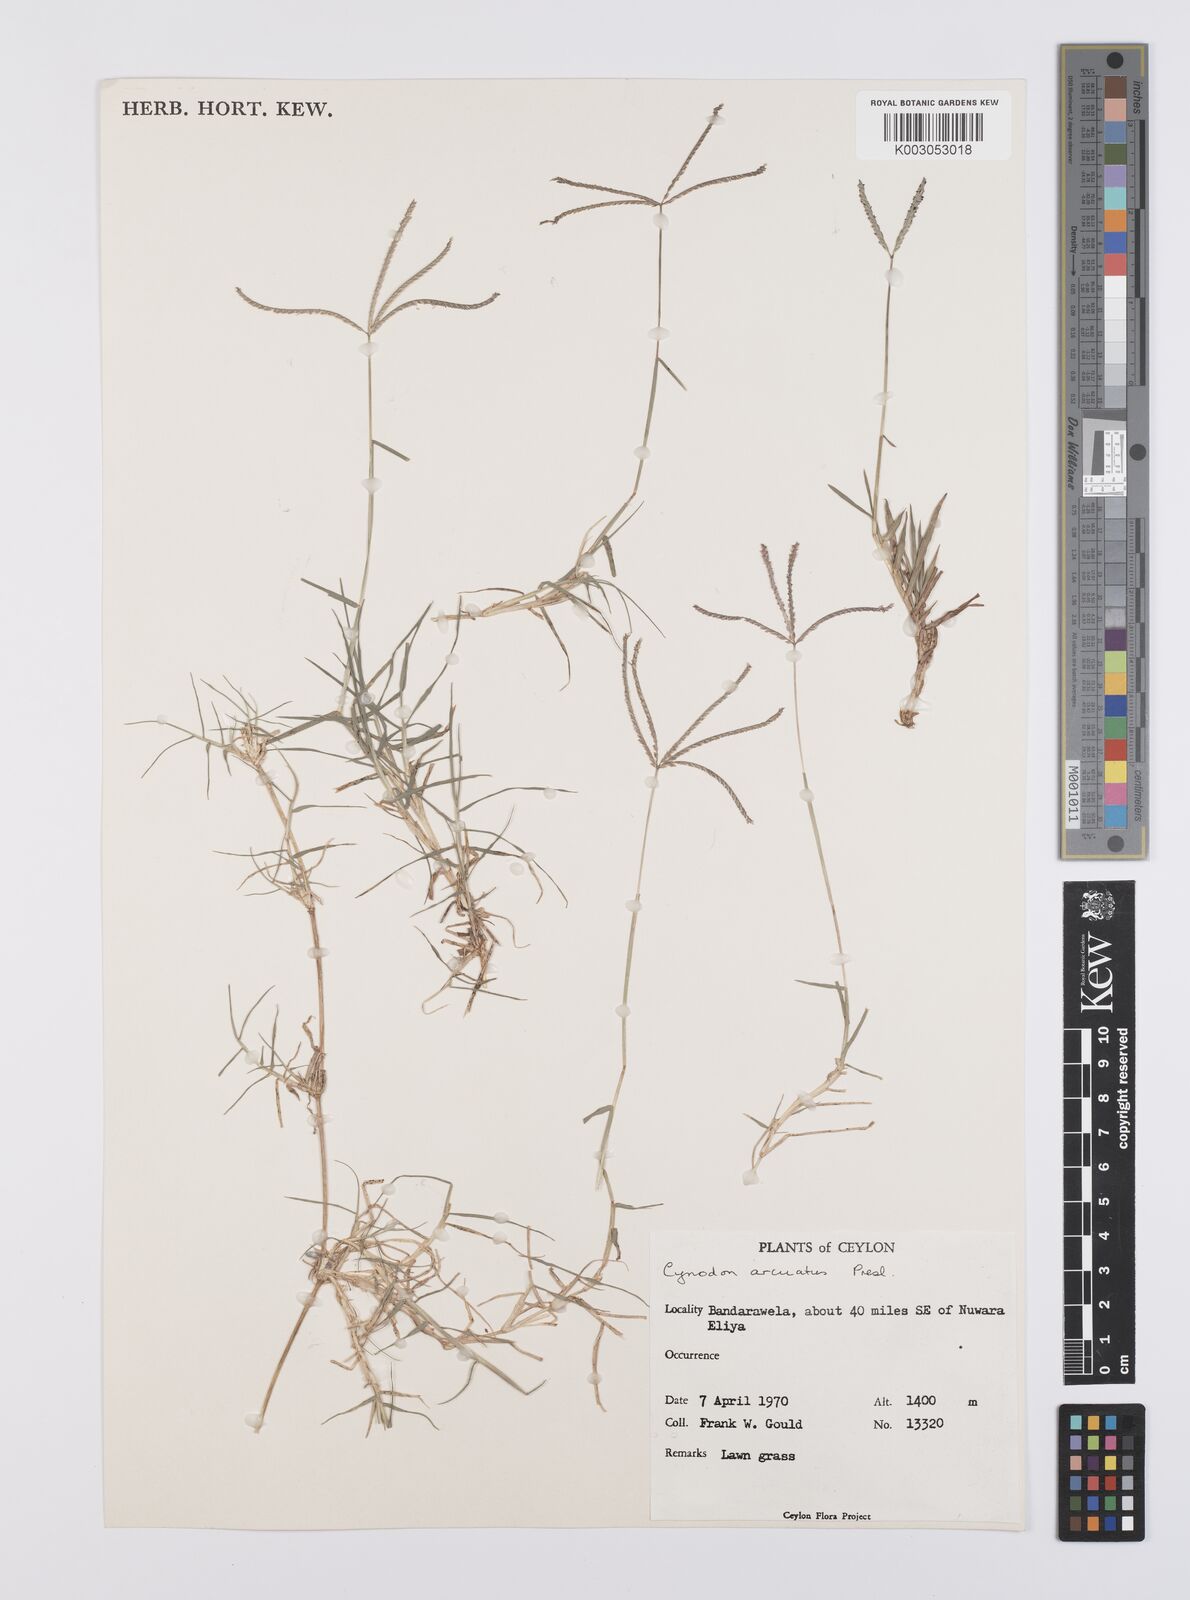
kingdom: Plantae
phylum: Tracheophyta
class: Liliopsida
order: Poales
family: Poaceae
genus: Cynodon
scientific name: Cynodon radiatus
